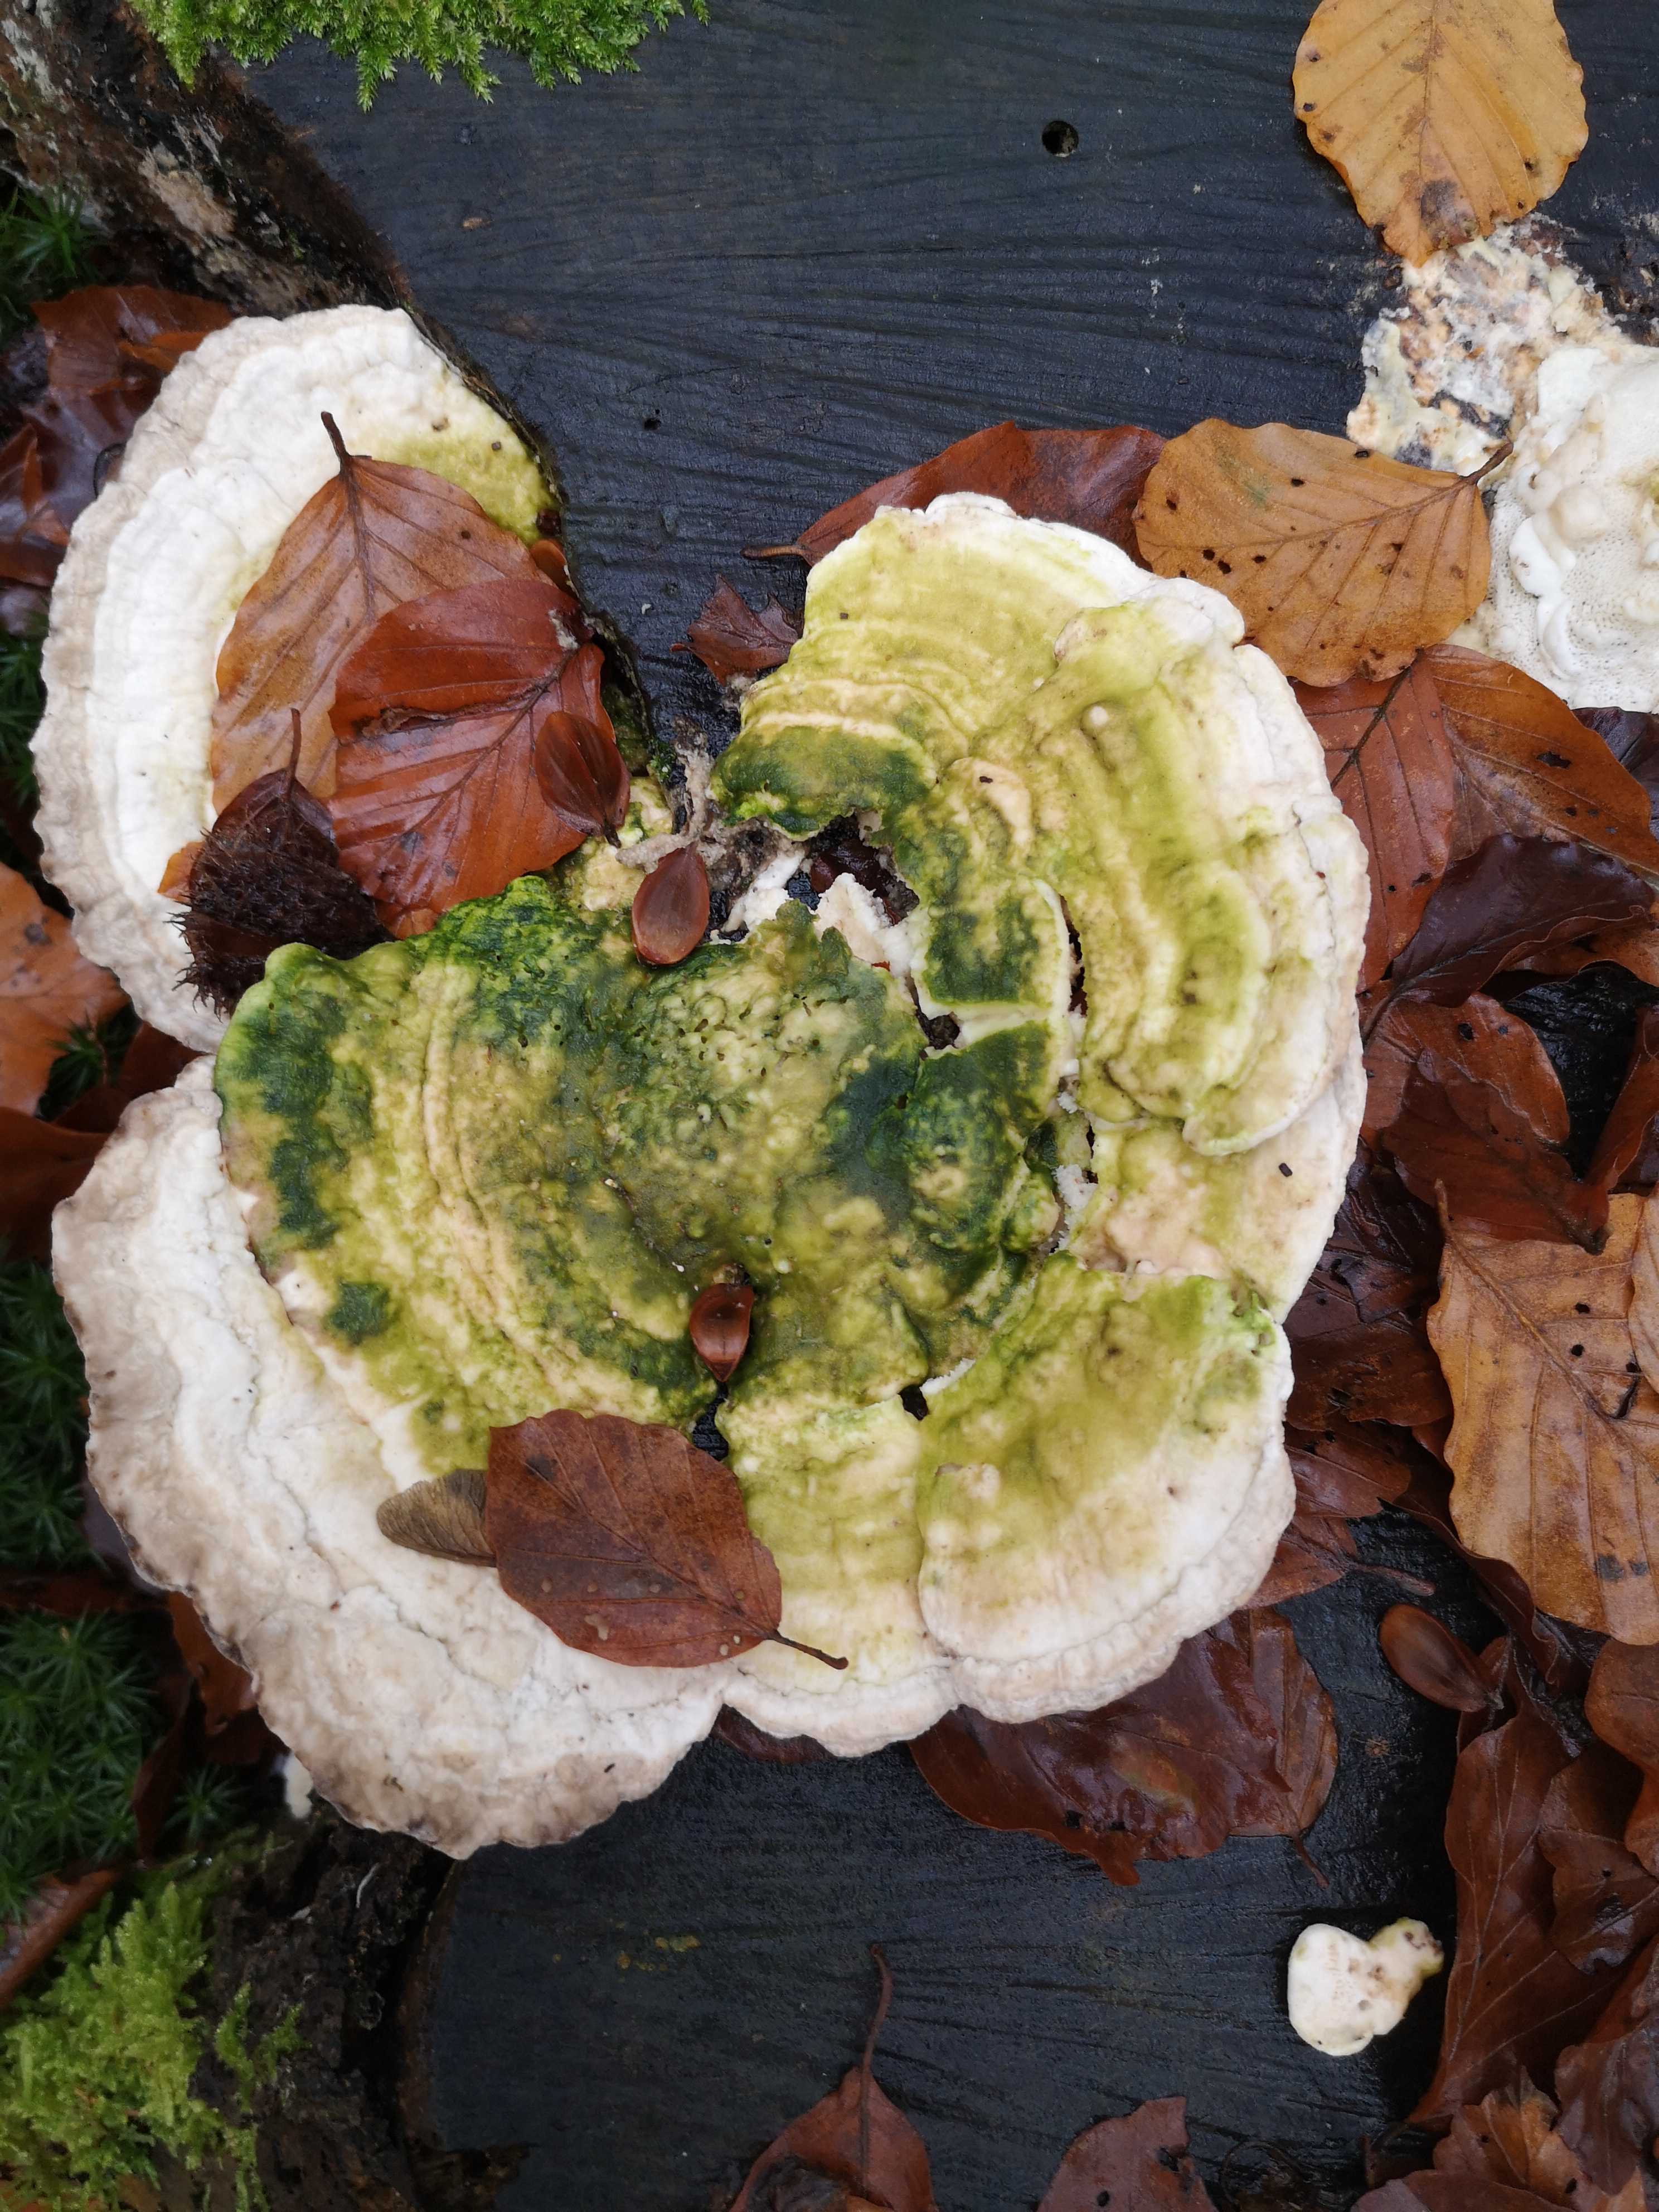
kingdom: Fungi
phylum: Basidiomycota
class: Agaricomycetes
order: Polyporales
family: Polyporaceae
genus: Trametes
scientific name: Trametes gibbosa
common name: puklet læderporesvamp
